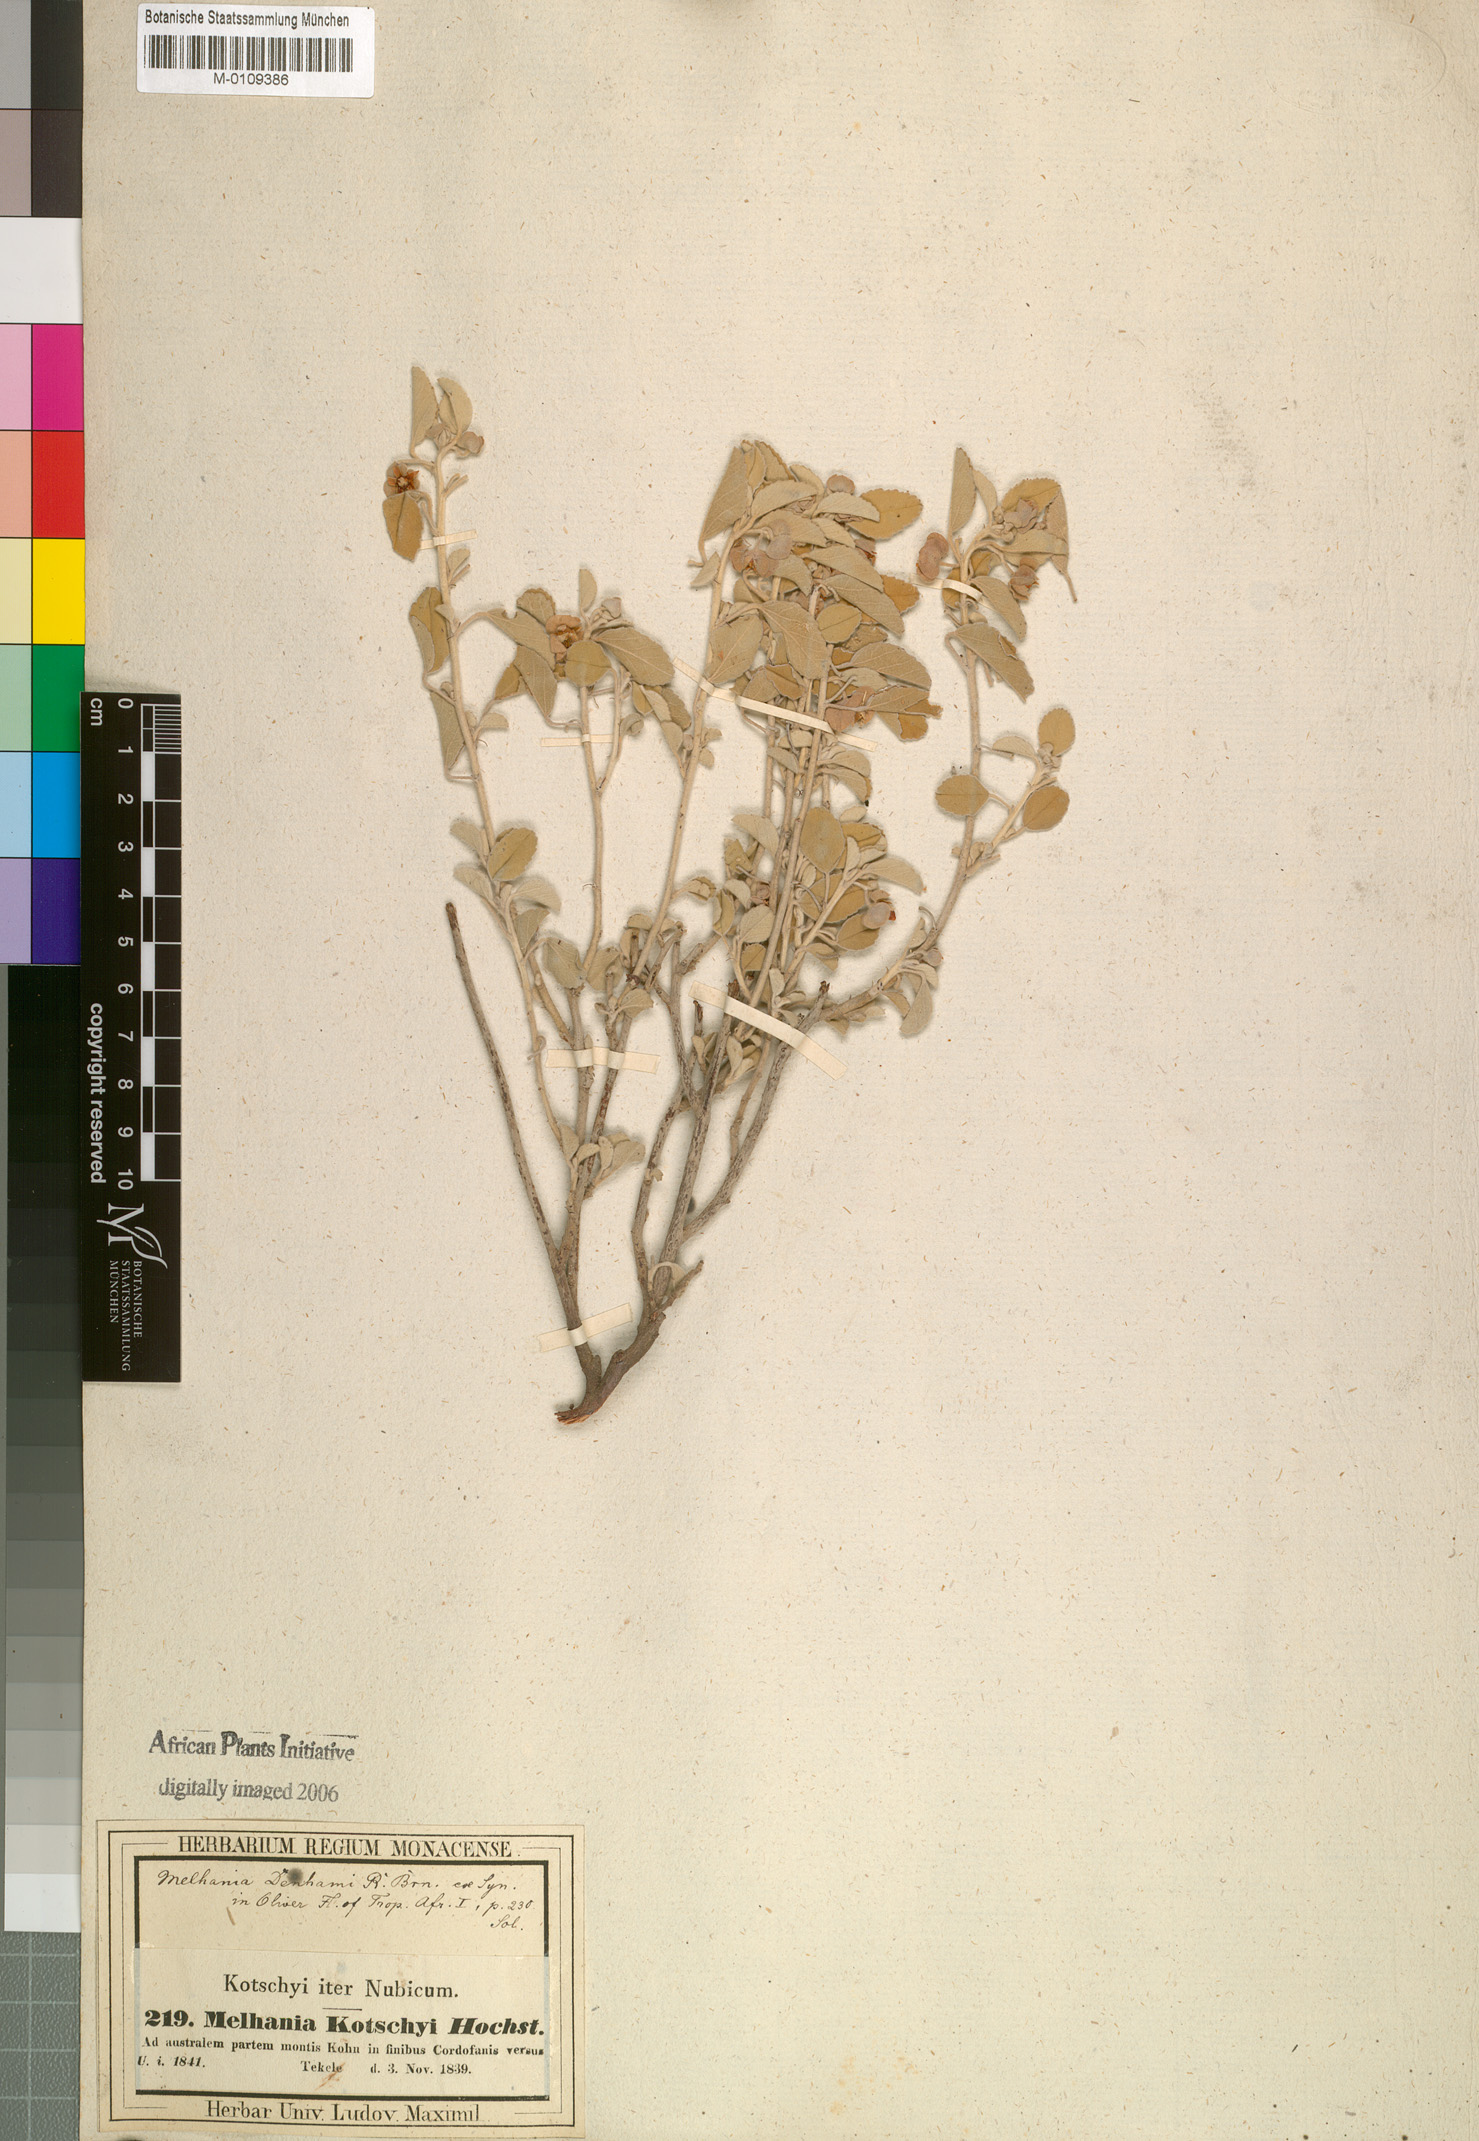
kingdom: Plantae
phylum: Tracheophyta
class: Magnoliopsida
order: Malvales
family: Malvaceae
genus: Melhania
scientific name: Melhania denhamii
